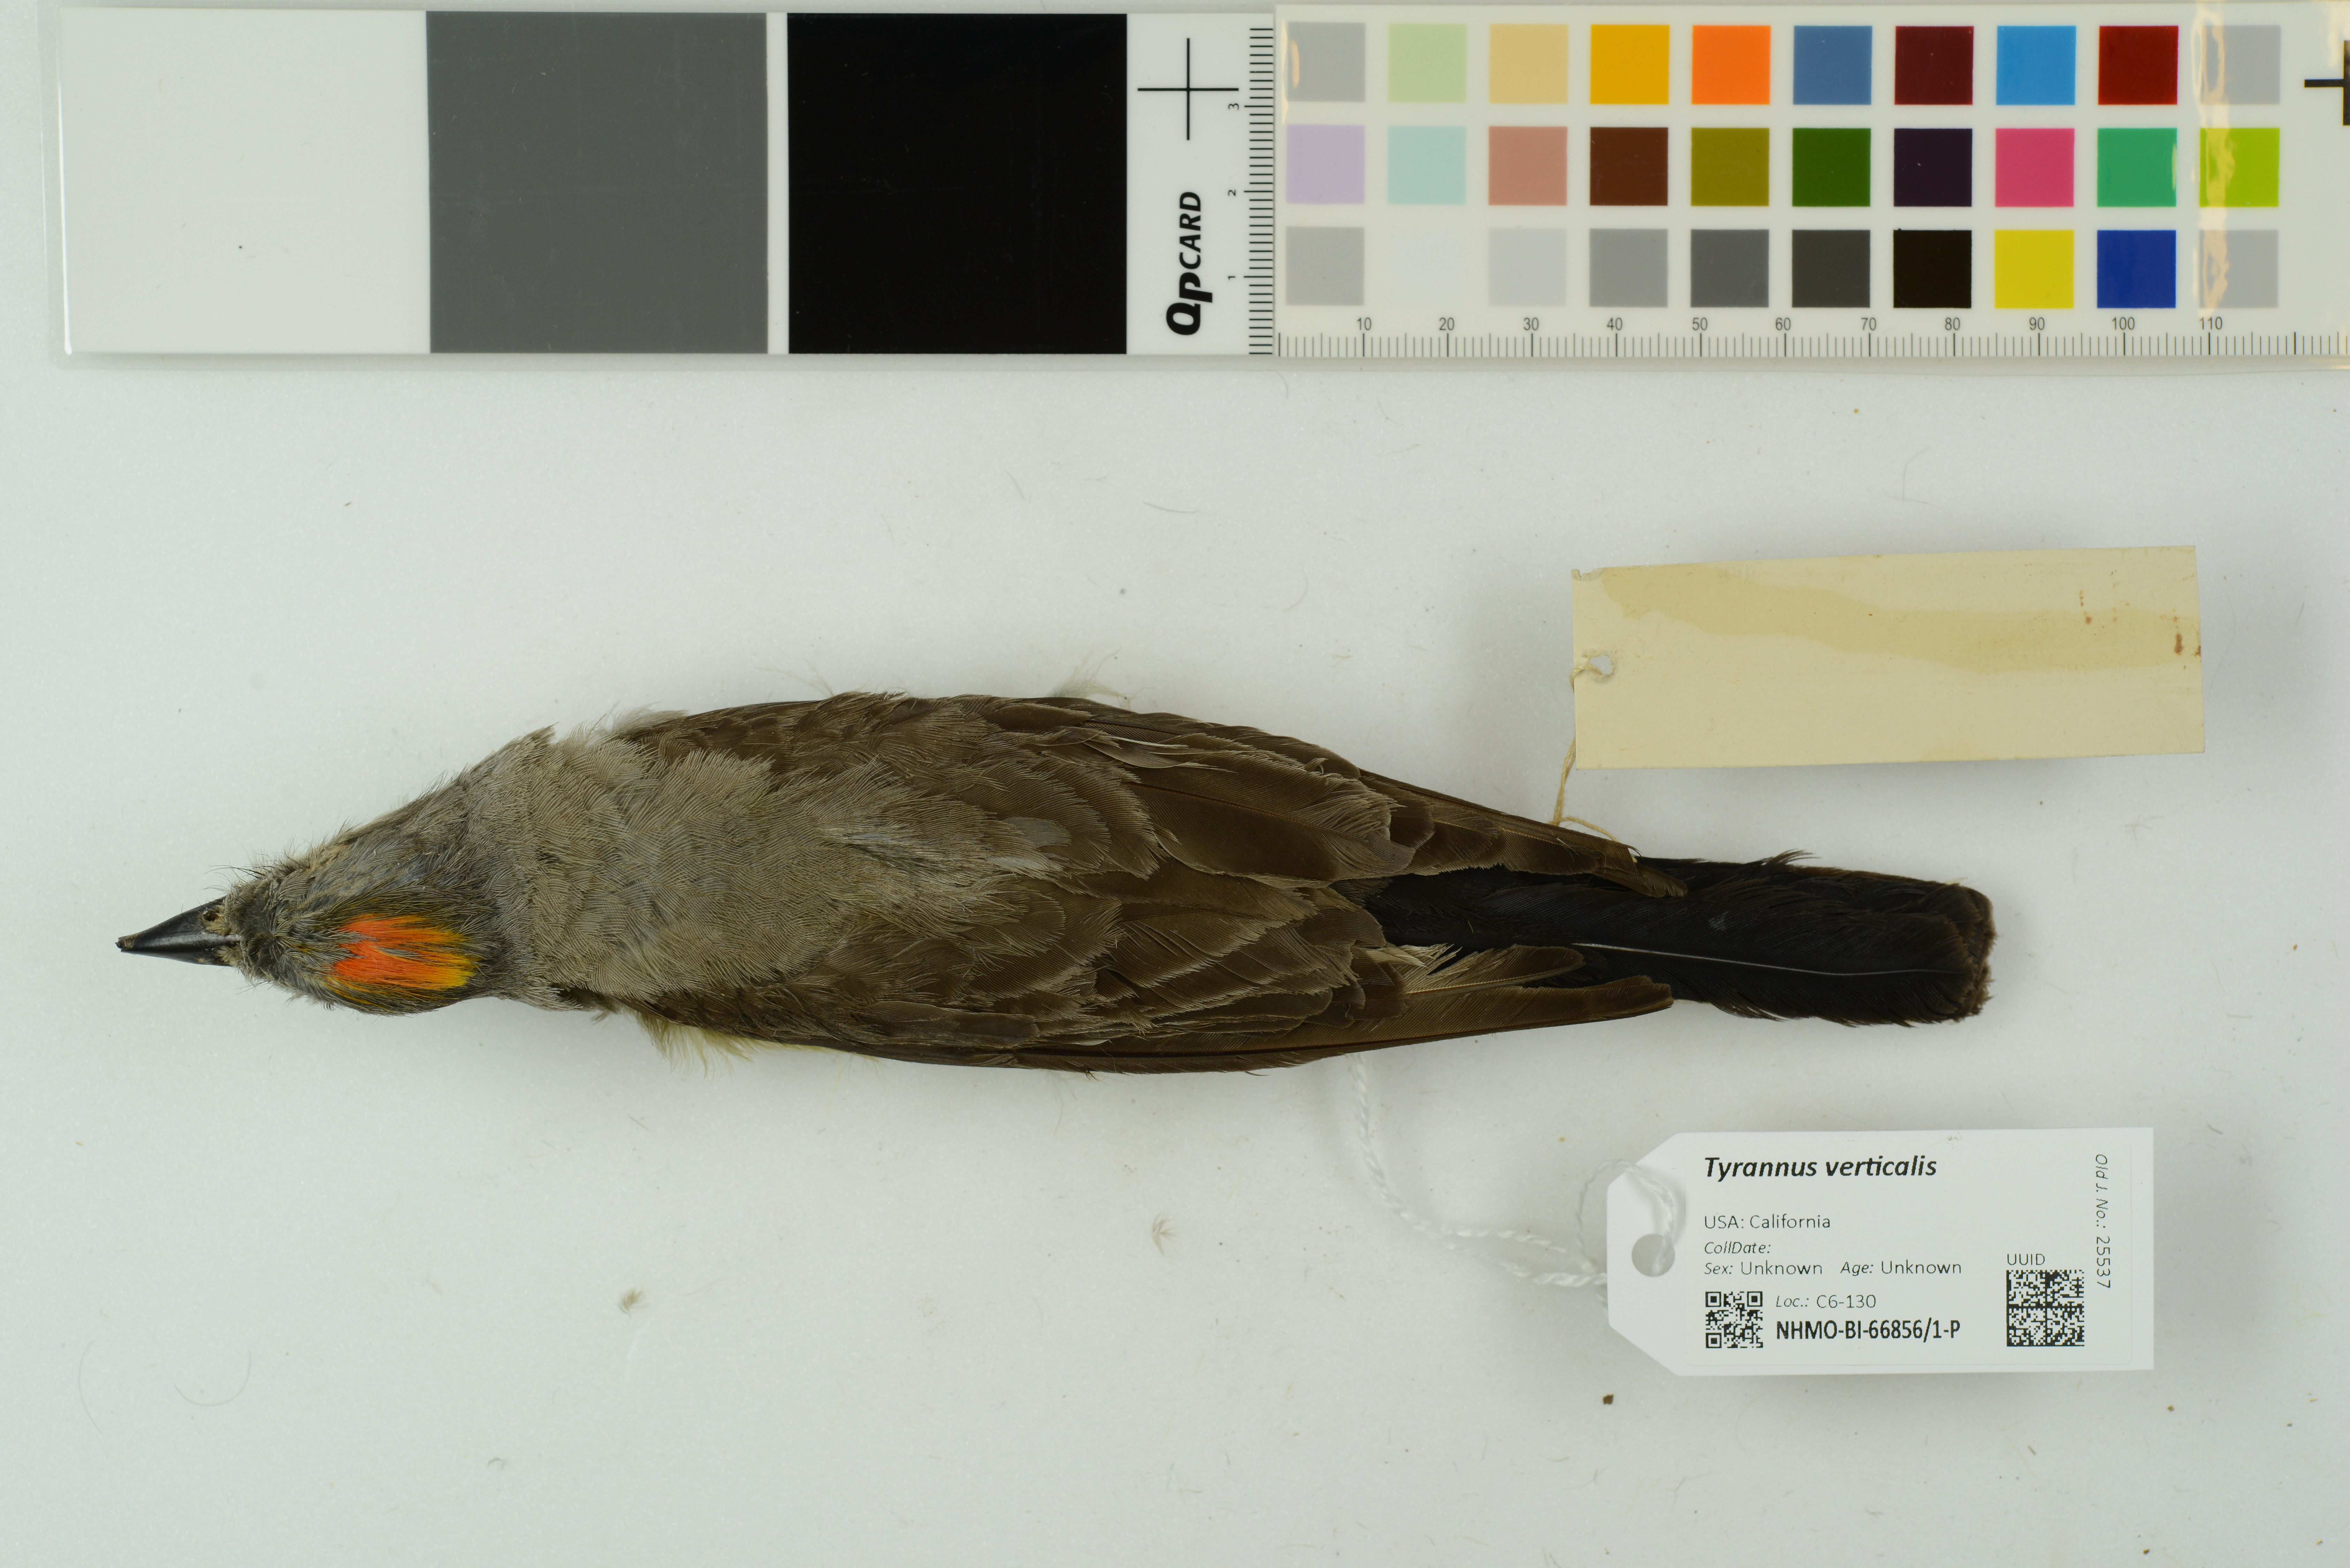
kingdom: Animalia
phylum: Chordata
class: Aves
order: Passeriformes
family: Tyrannidae
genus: Tyrannus
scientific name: Tyrannus verticalis
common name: Western kingbird
